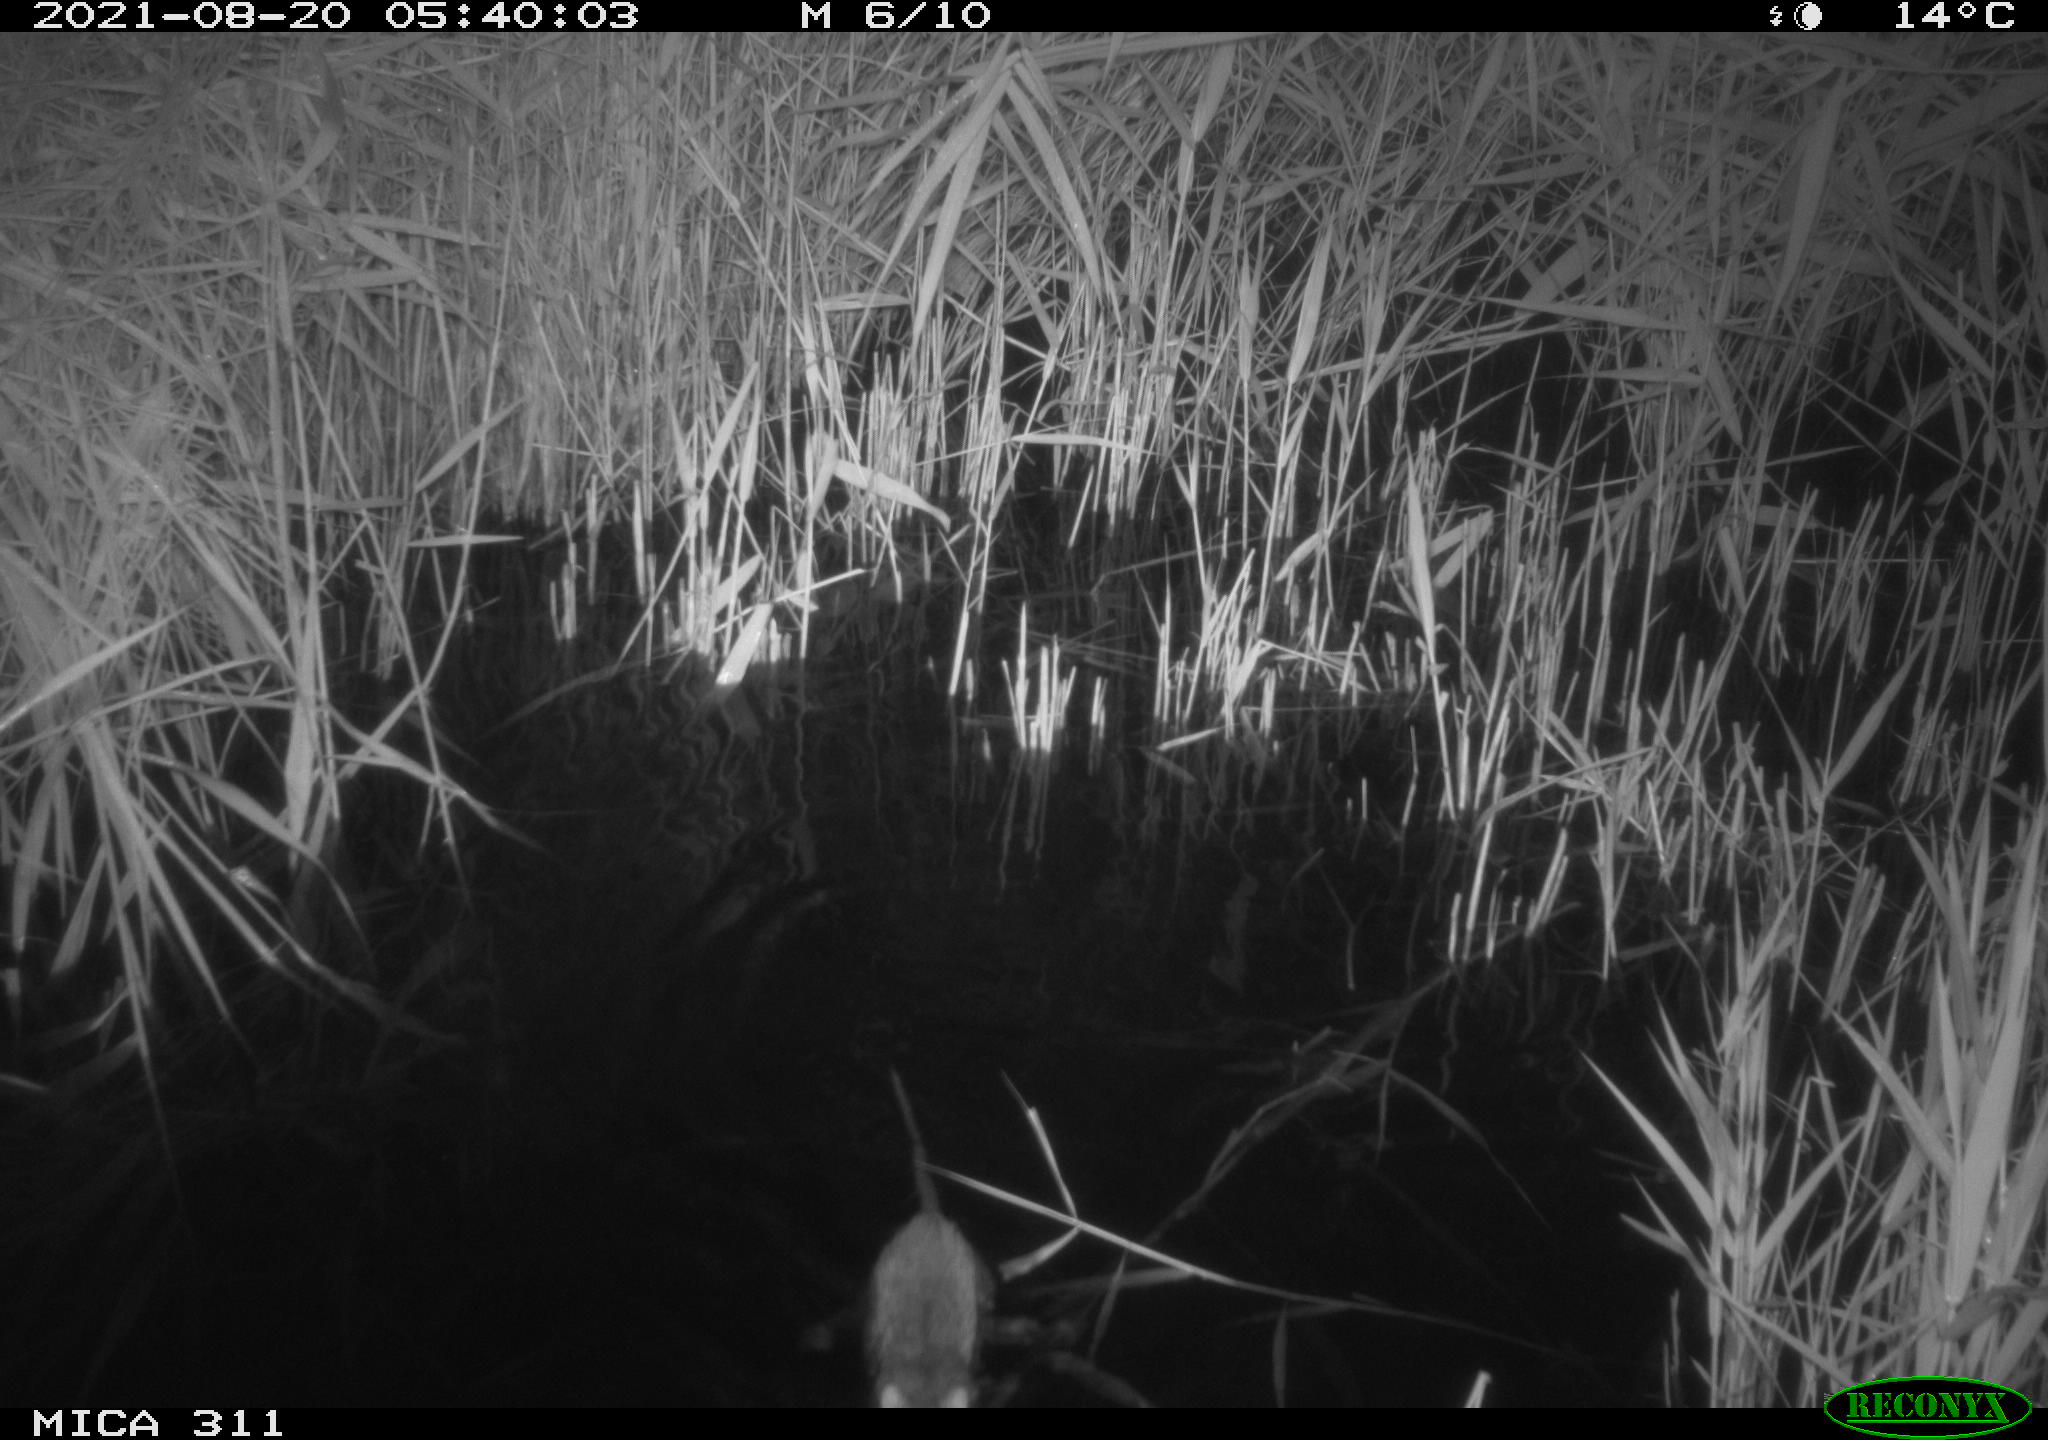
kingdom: Animalia
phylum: Chordata
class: Mammalia
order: Rodentia
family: Muridae
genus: Rattus
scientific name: Rattus norvegicus
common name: Brown rat
